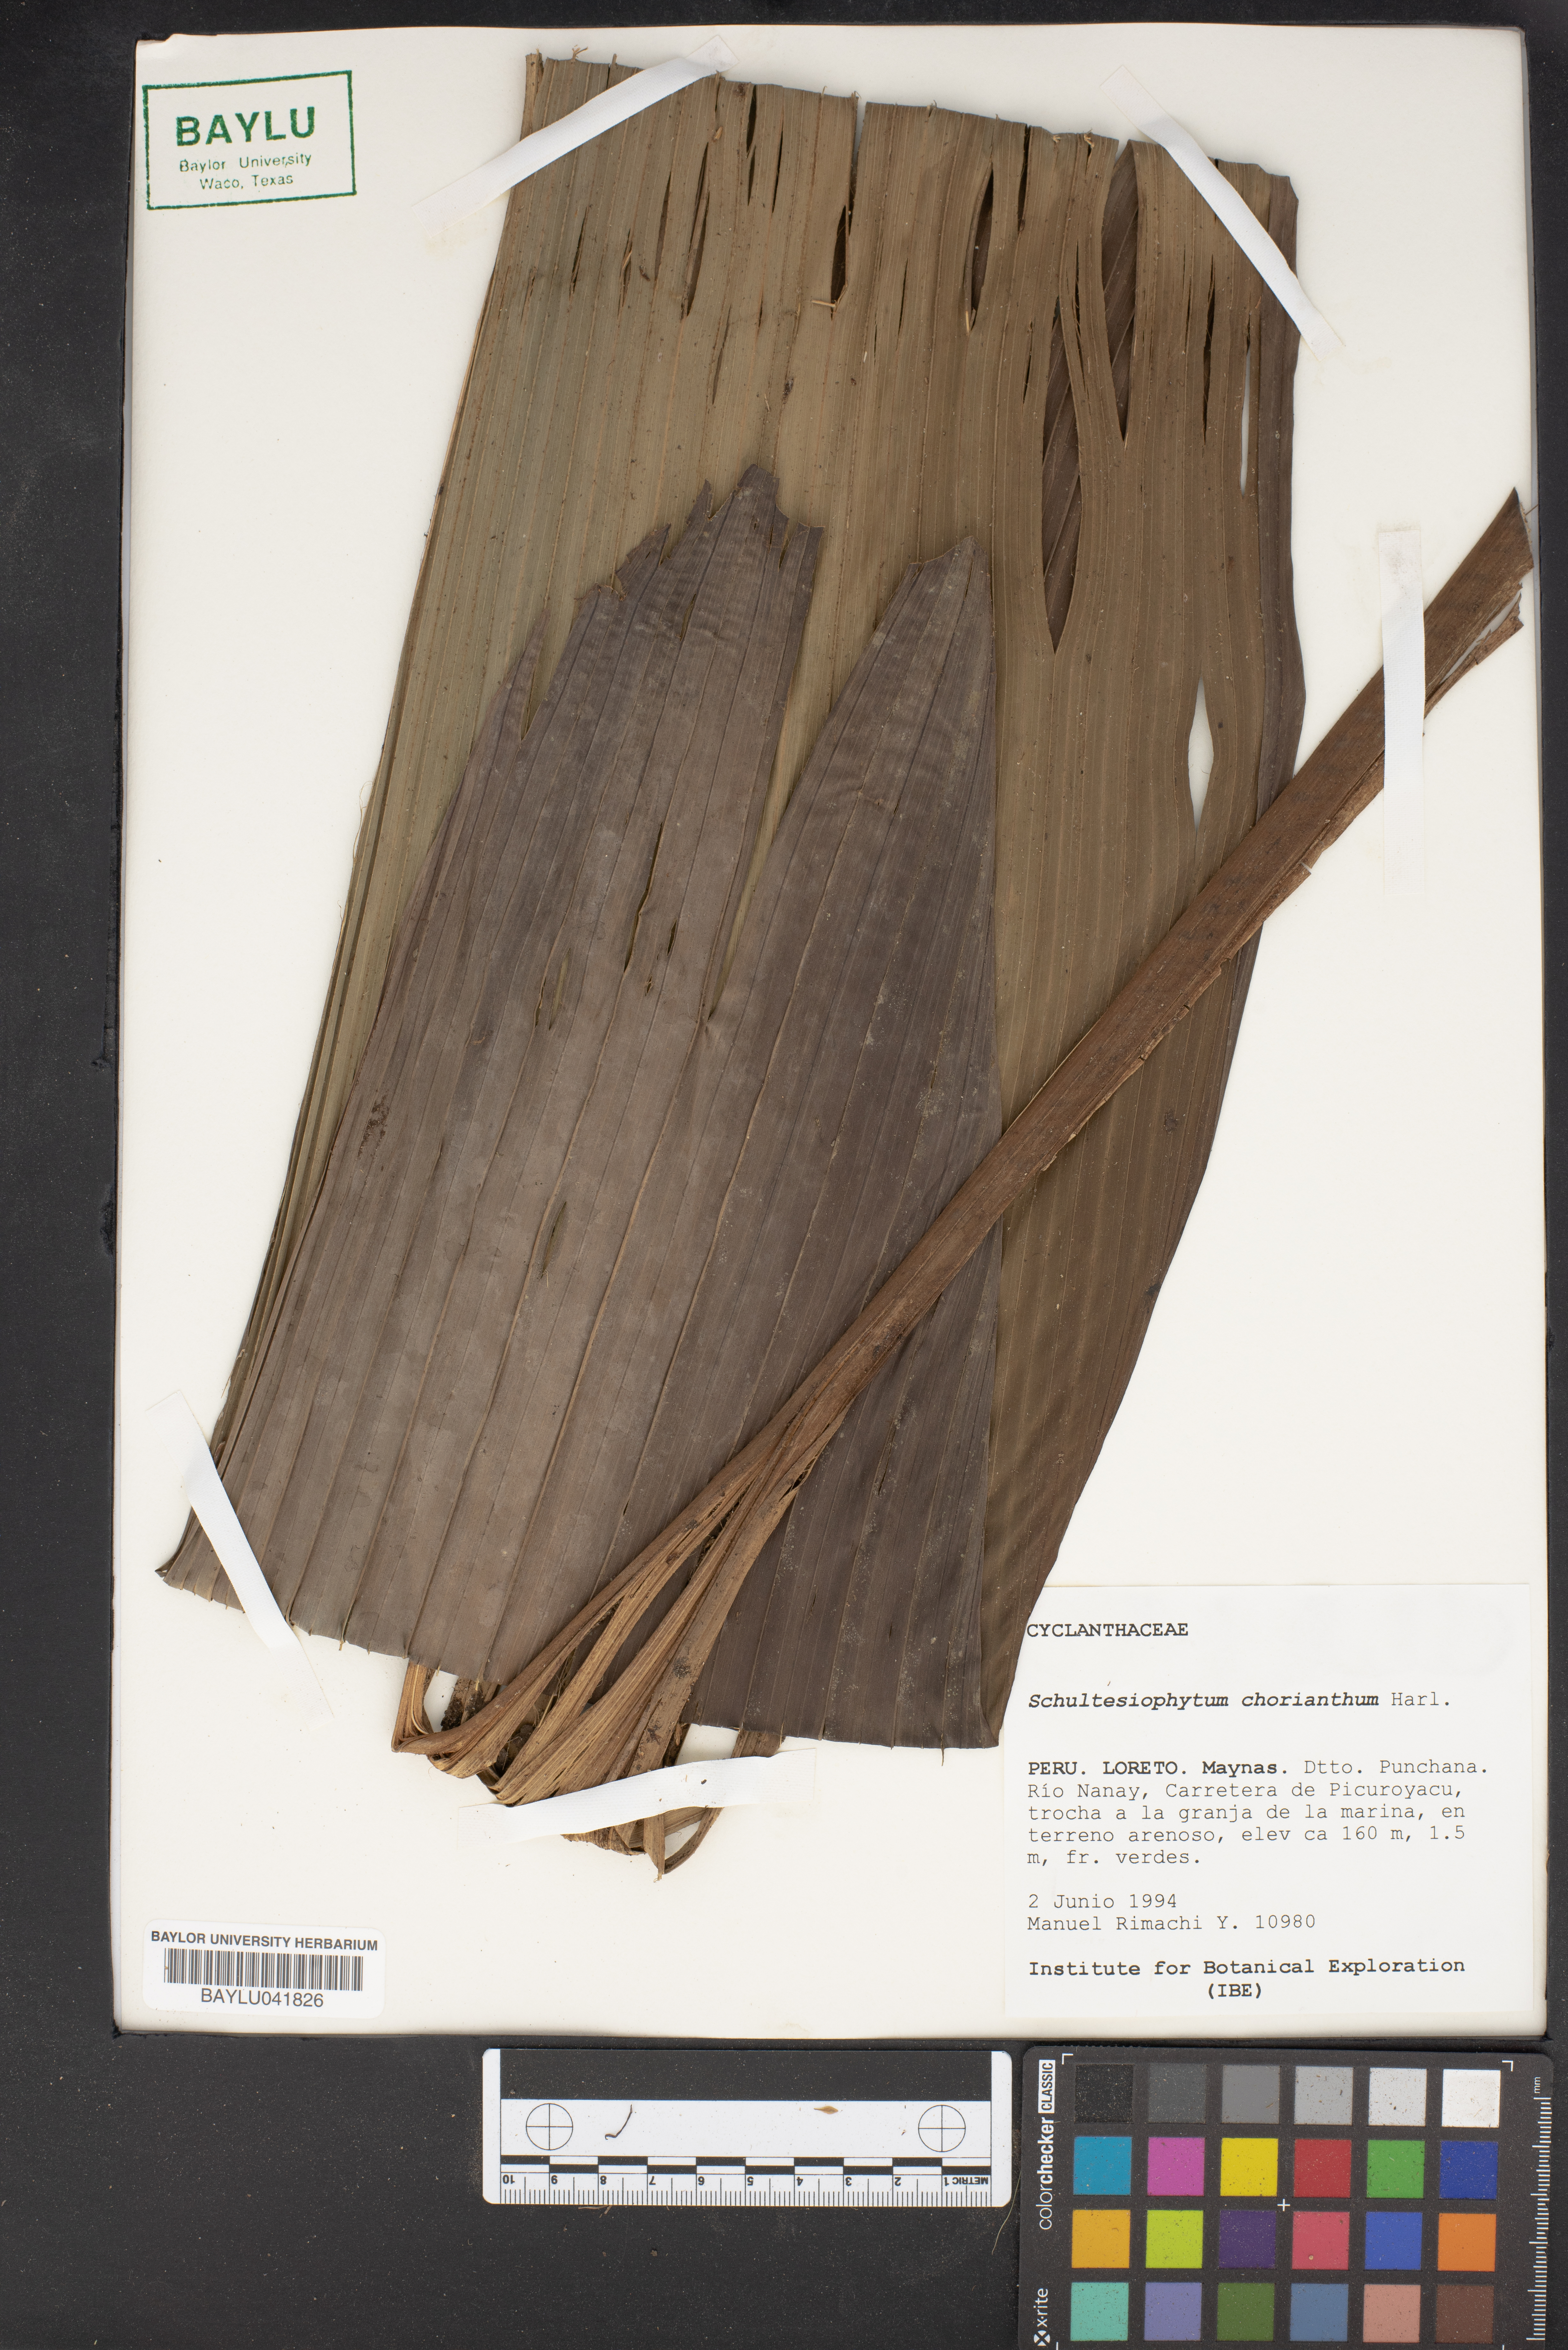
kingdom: Plantae
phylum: Tracheophyta
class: Liliopsida
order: Pandanales
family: Cyclanthaceae
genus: Schultesiophytum
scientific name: Schultesiophytum chorianthum
